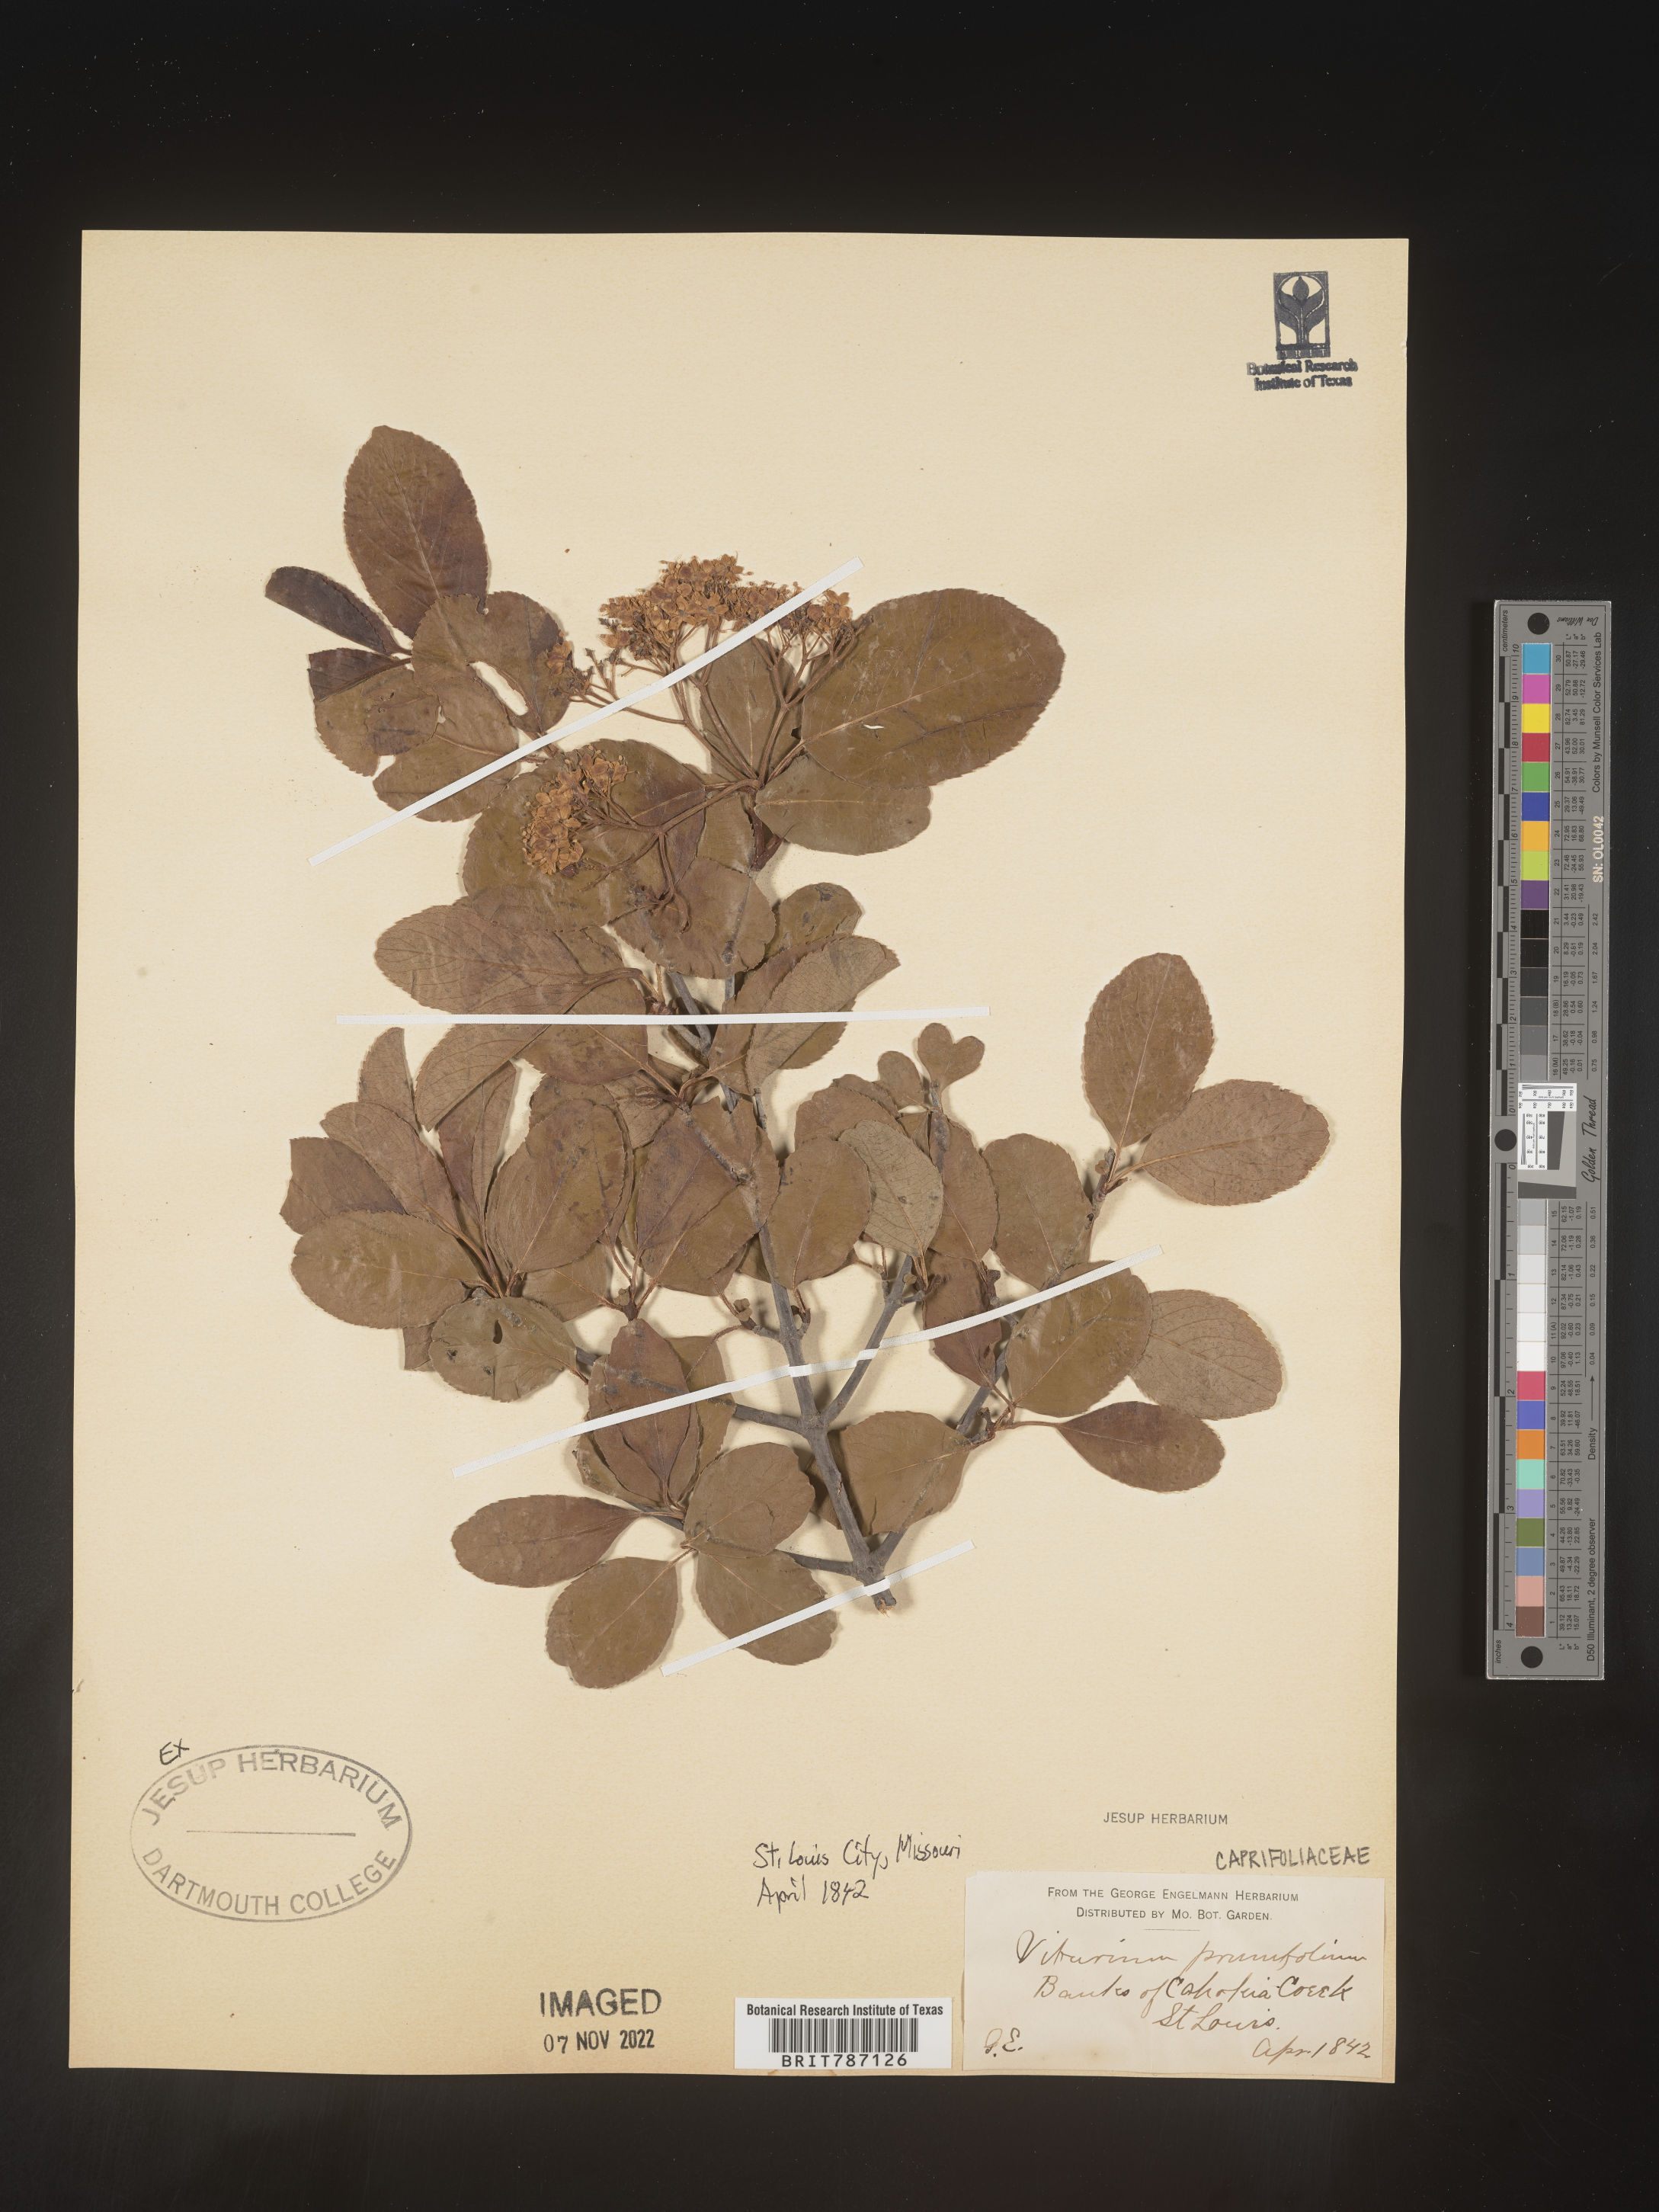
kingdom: Plantae
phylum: Tracheophyta
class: Magnoliopsida
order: Dipsacales
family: Viburnaceae
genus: Viburnum
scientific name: Viburnum prunifolium
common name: Black haw
